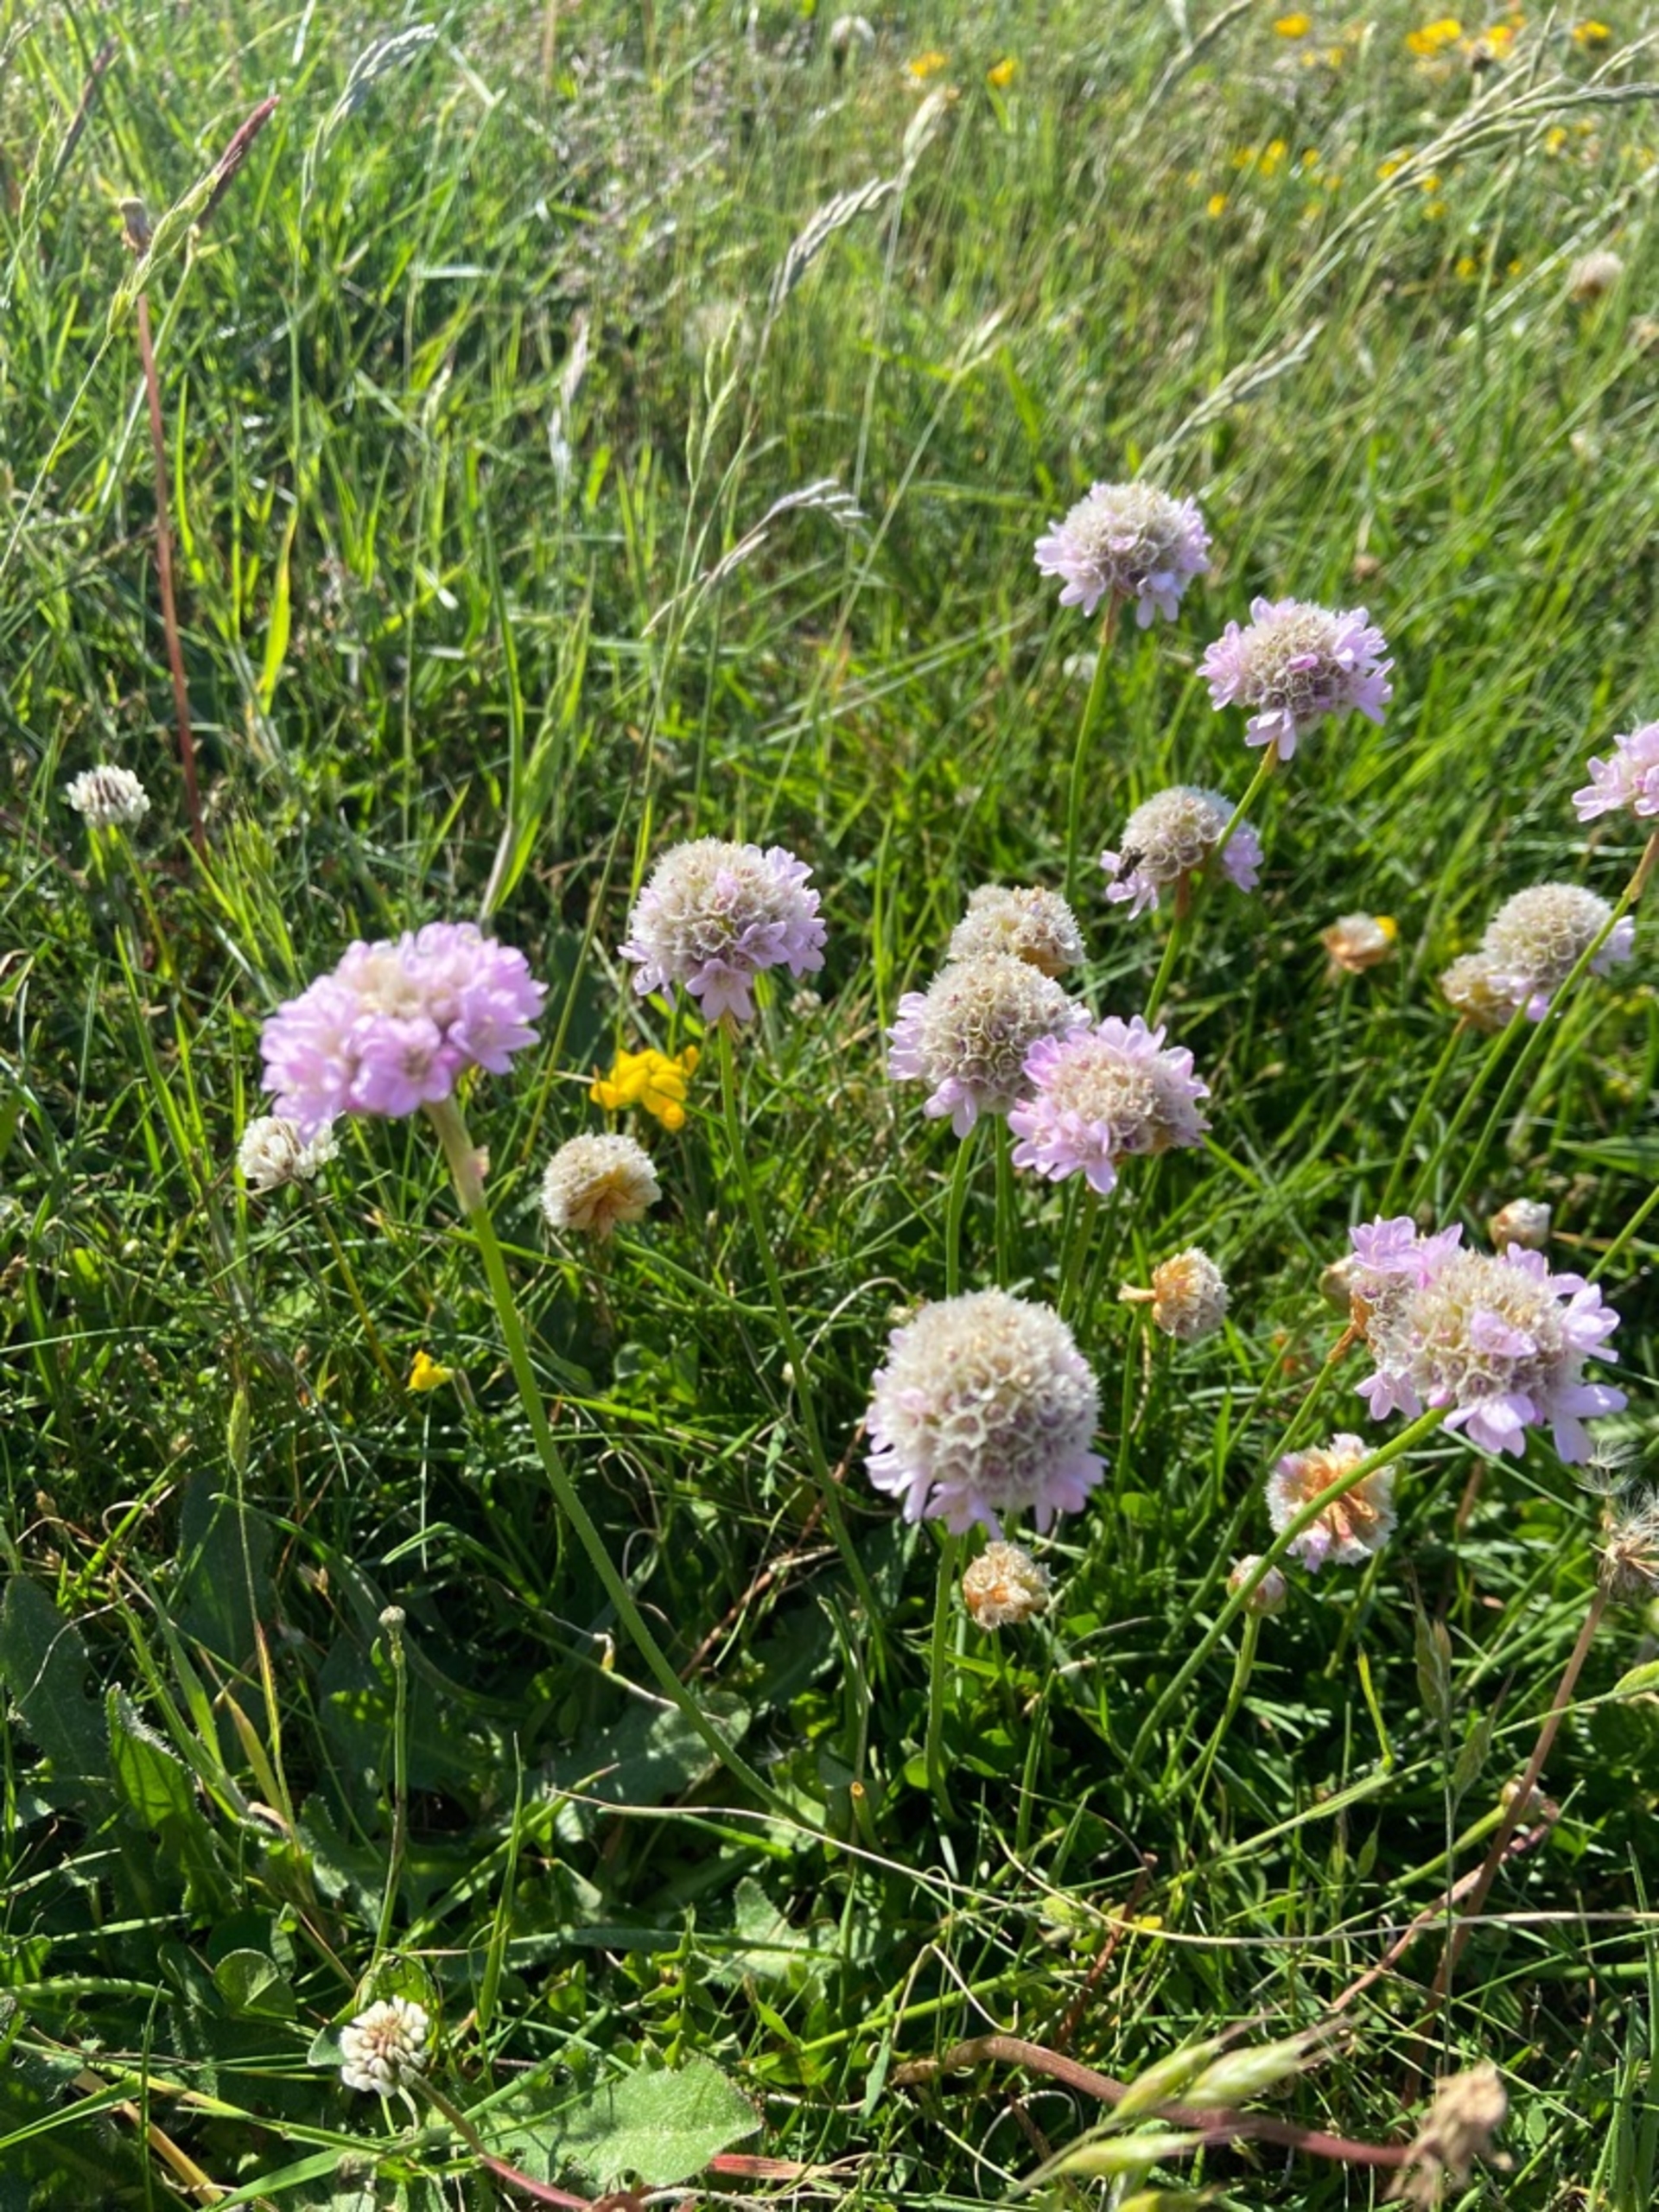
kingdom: Plantae
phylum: Tracheophyta
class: Magnoliopsida
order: Caryophyllales
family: Plumbaginaceae
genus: Armeria
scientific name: Armeria maritima
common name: Engelskgræs
